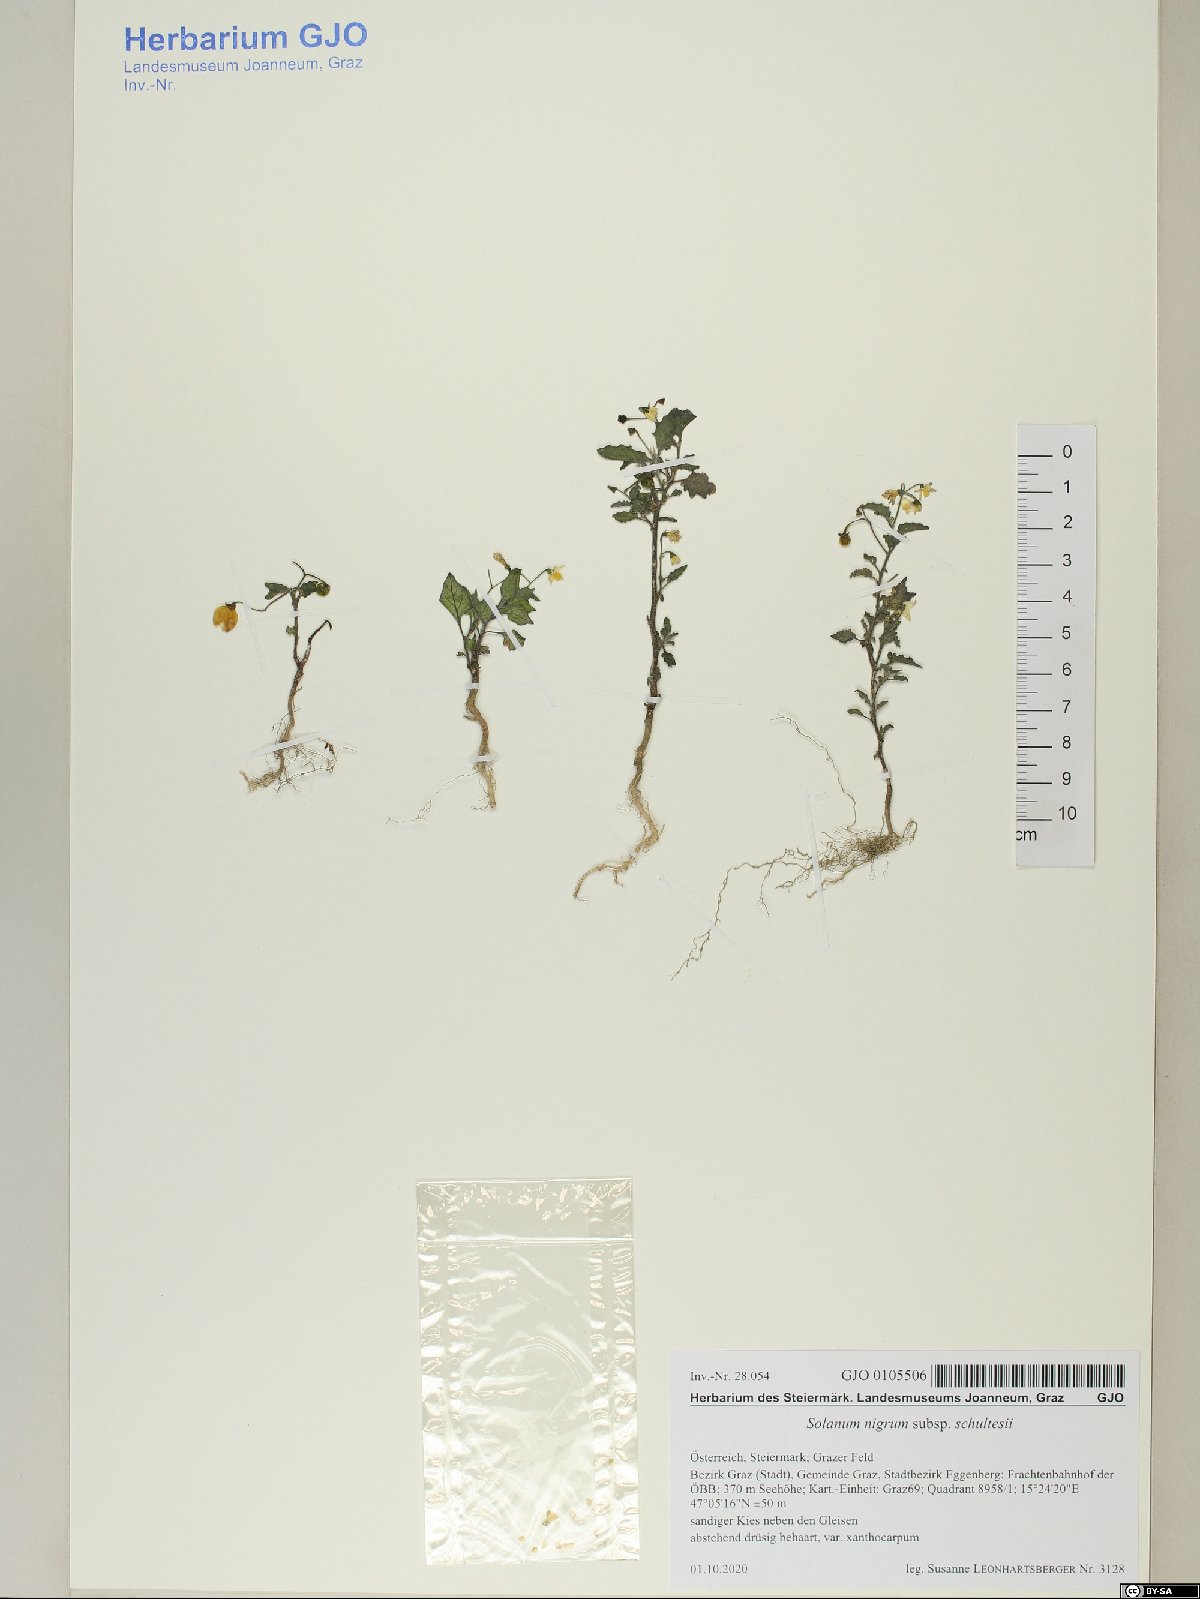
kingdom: Plantae
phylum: Tracheophyta
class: Magnoliopsida
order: Solanales
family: Solanaceae
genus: Solanum
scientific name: Solanum decipiens
